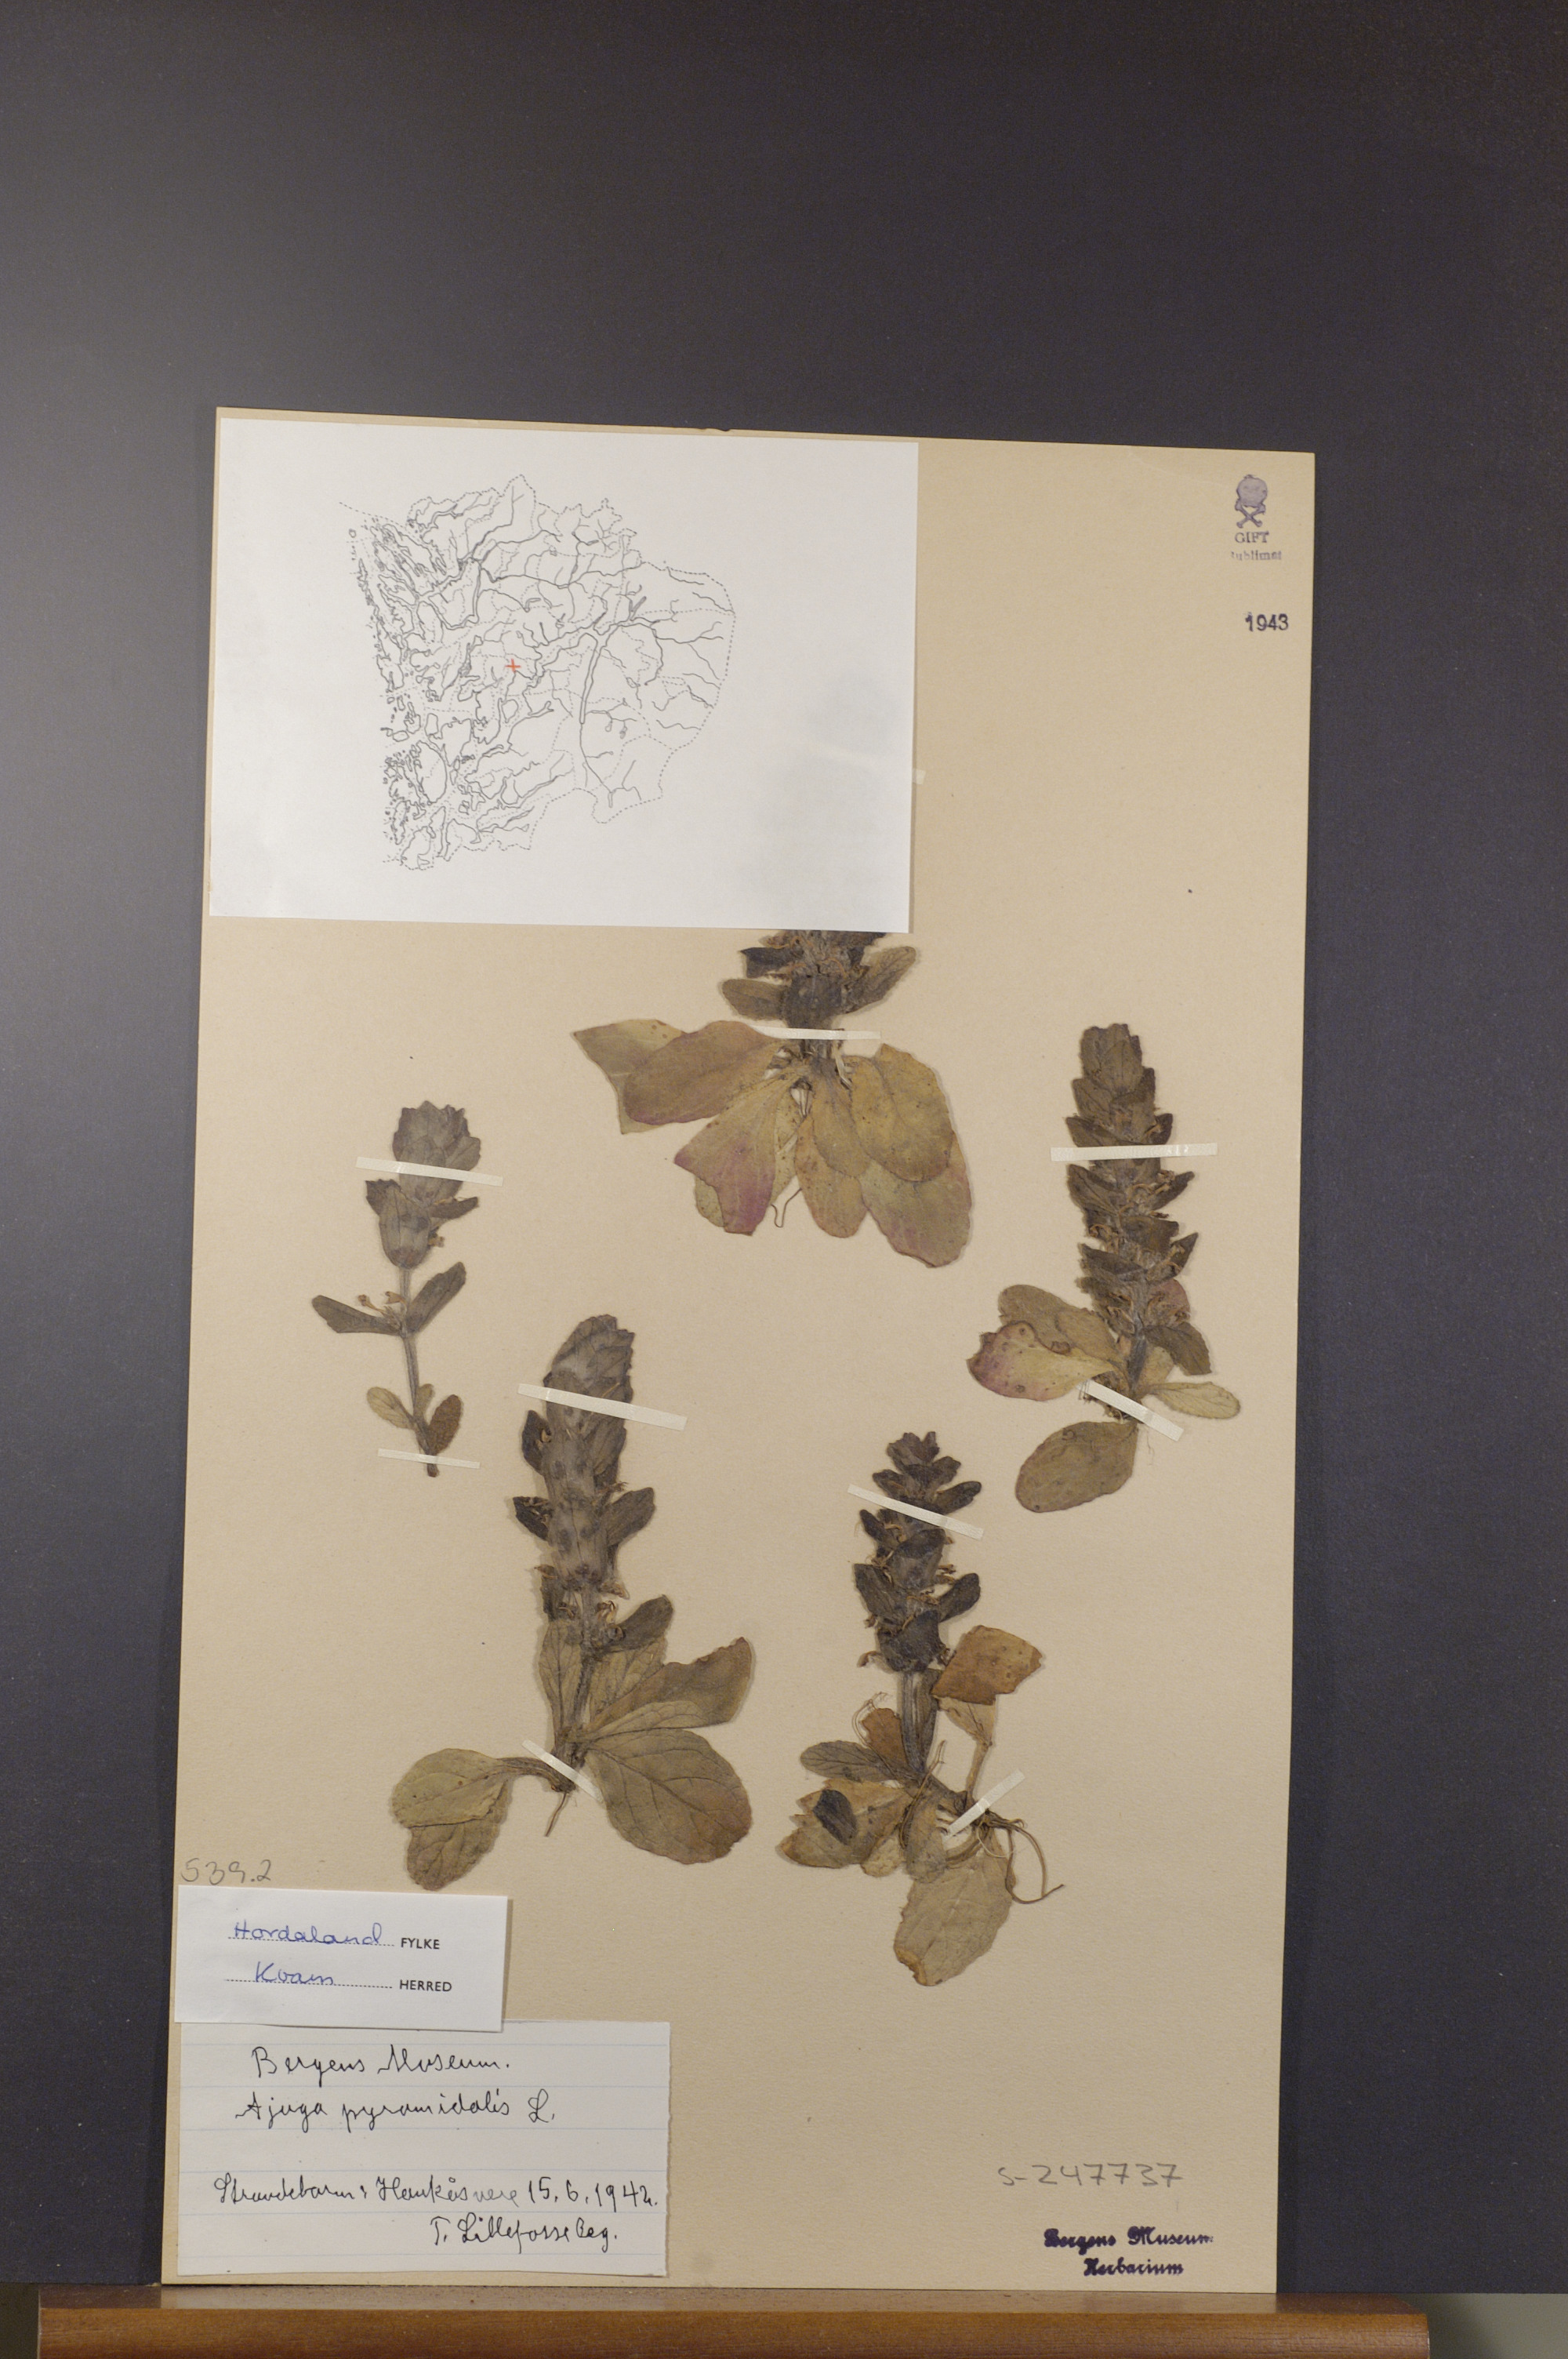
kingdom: Plantae
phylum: Tracheophyta
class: Magnoliopsida
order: Lamiales
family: Lamiaceae
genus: Ajuga
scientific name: Ajuga pyramidalis
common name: Pyramid bugle
